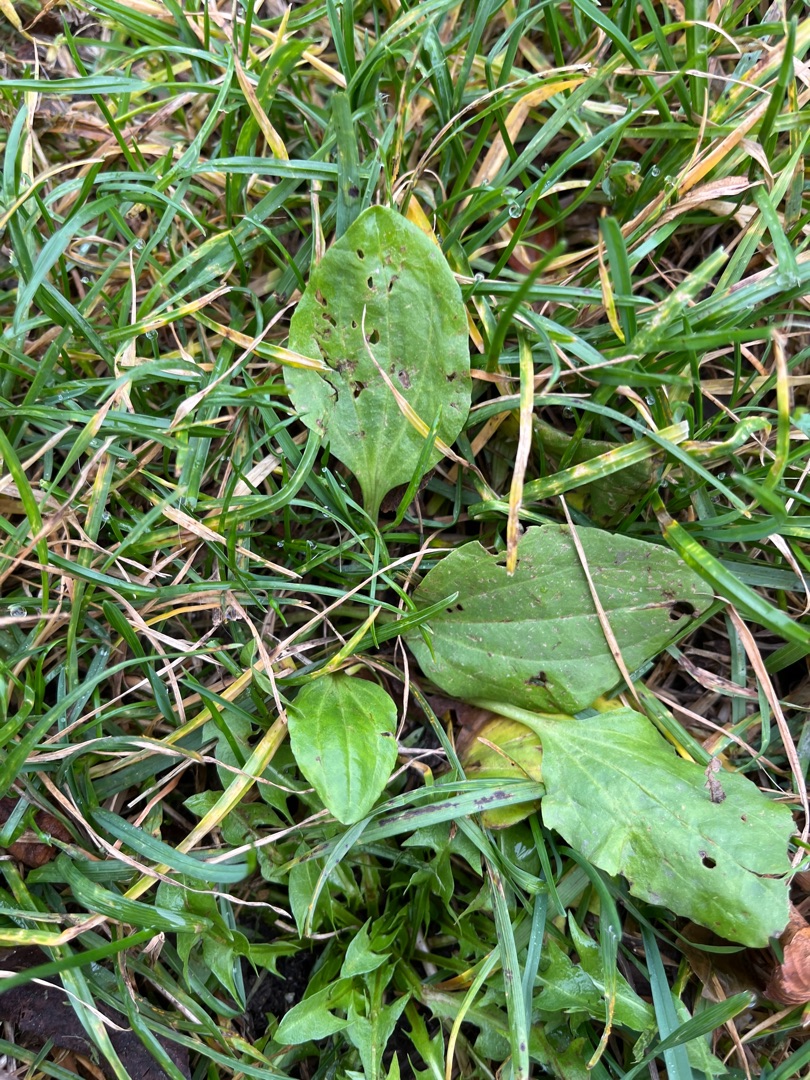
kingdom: Plantae
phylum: Tracheophyta
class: Magnoliopsida
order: Lamiales
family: Plantaginaceae
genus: Plantago
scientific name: Plantago major
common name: Glat vejbred
